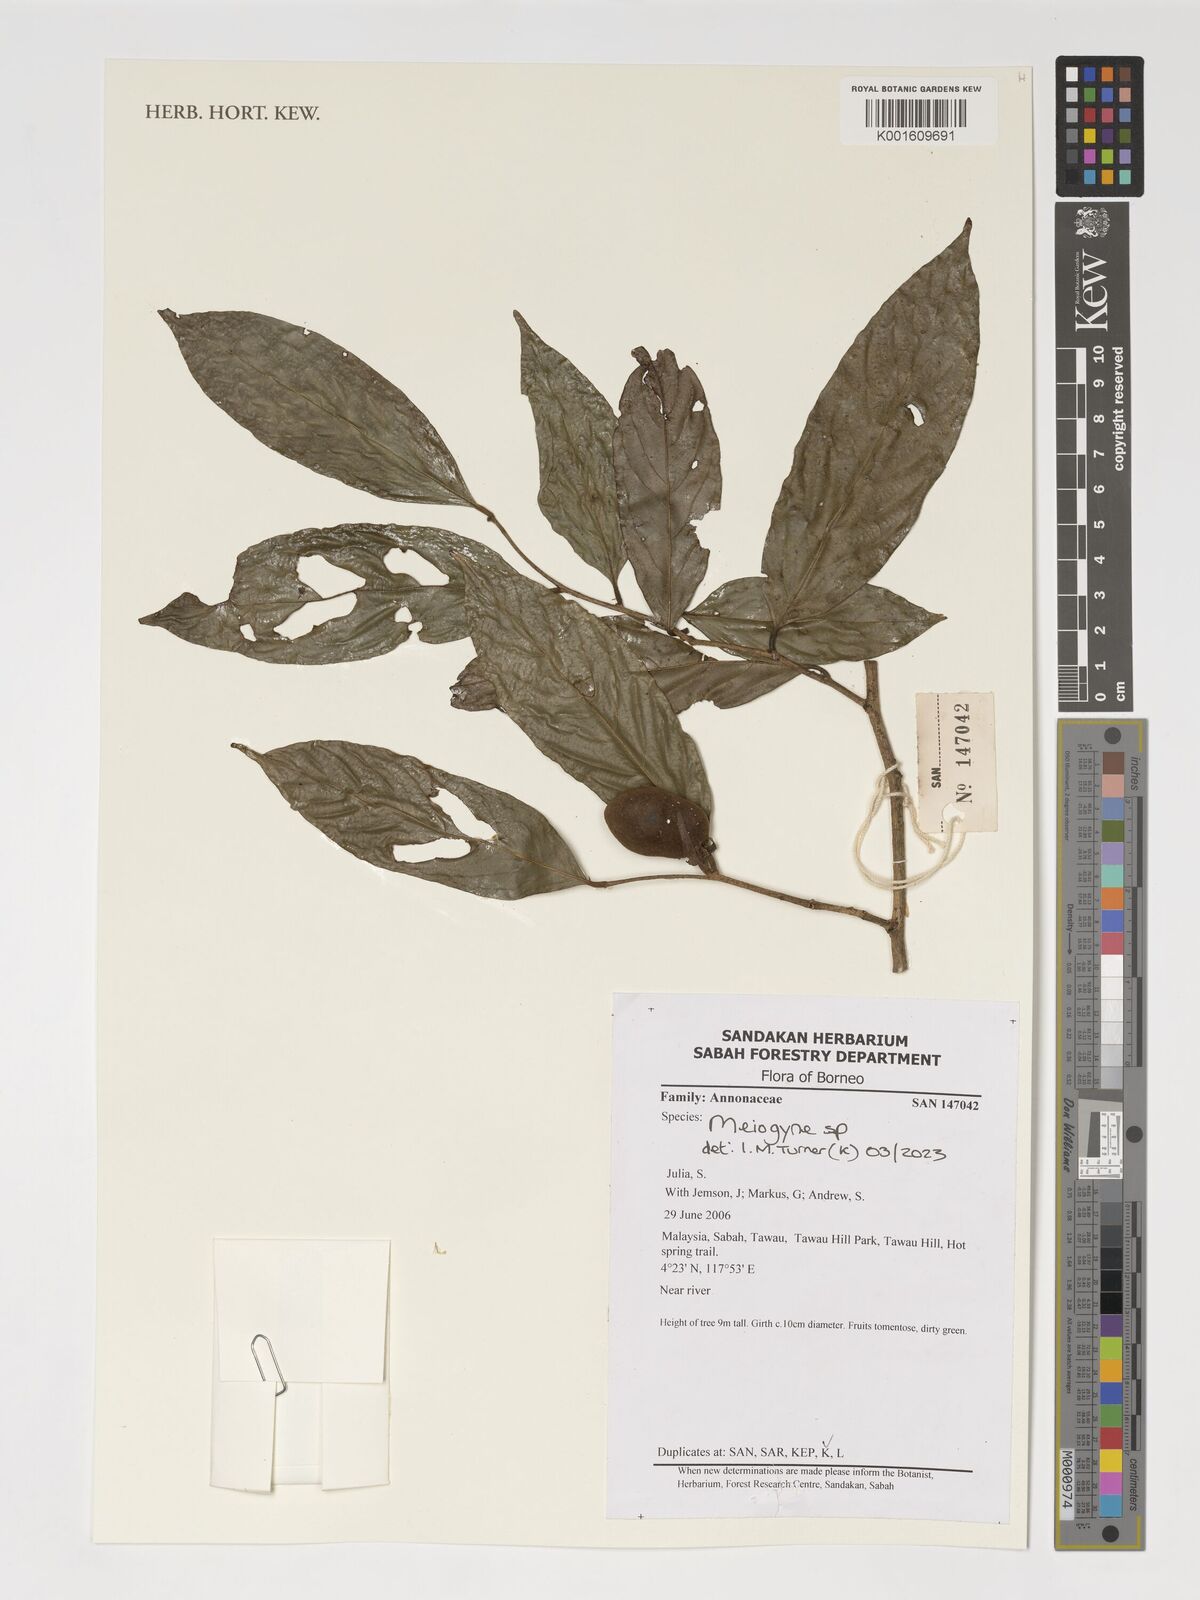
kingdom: Plantae
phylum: Tracheophyta
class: Magnoliopsida
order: Magnoliales
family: Annonaceae
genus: Meiogyne
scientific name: Meiogyne
